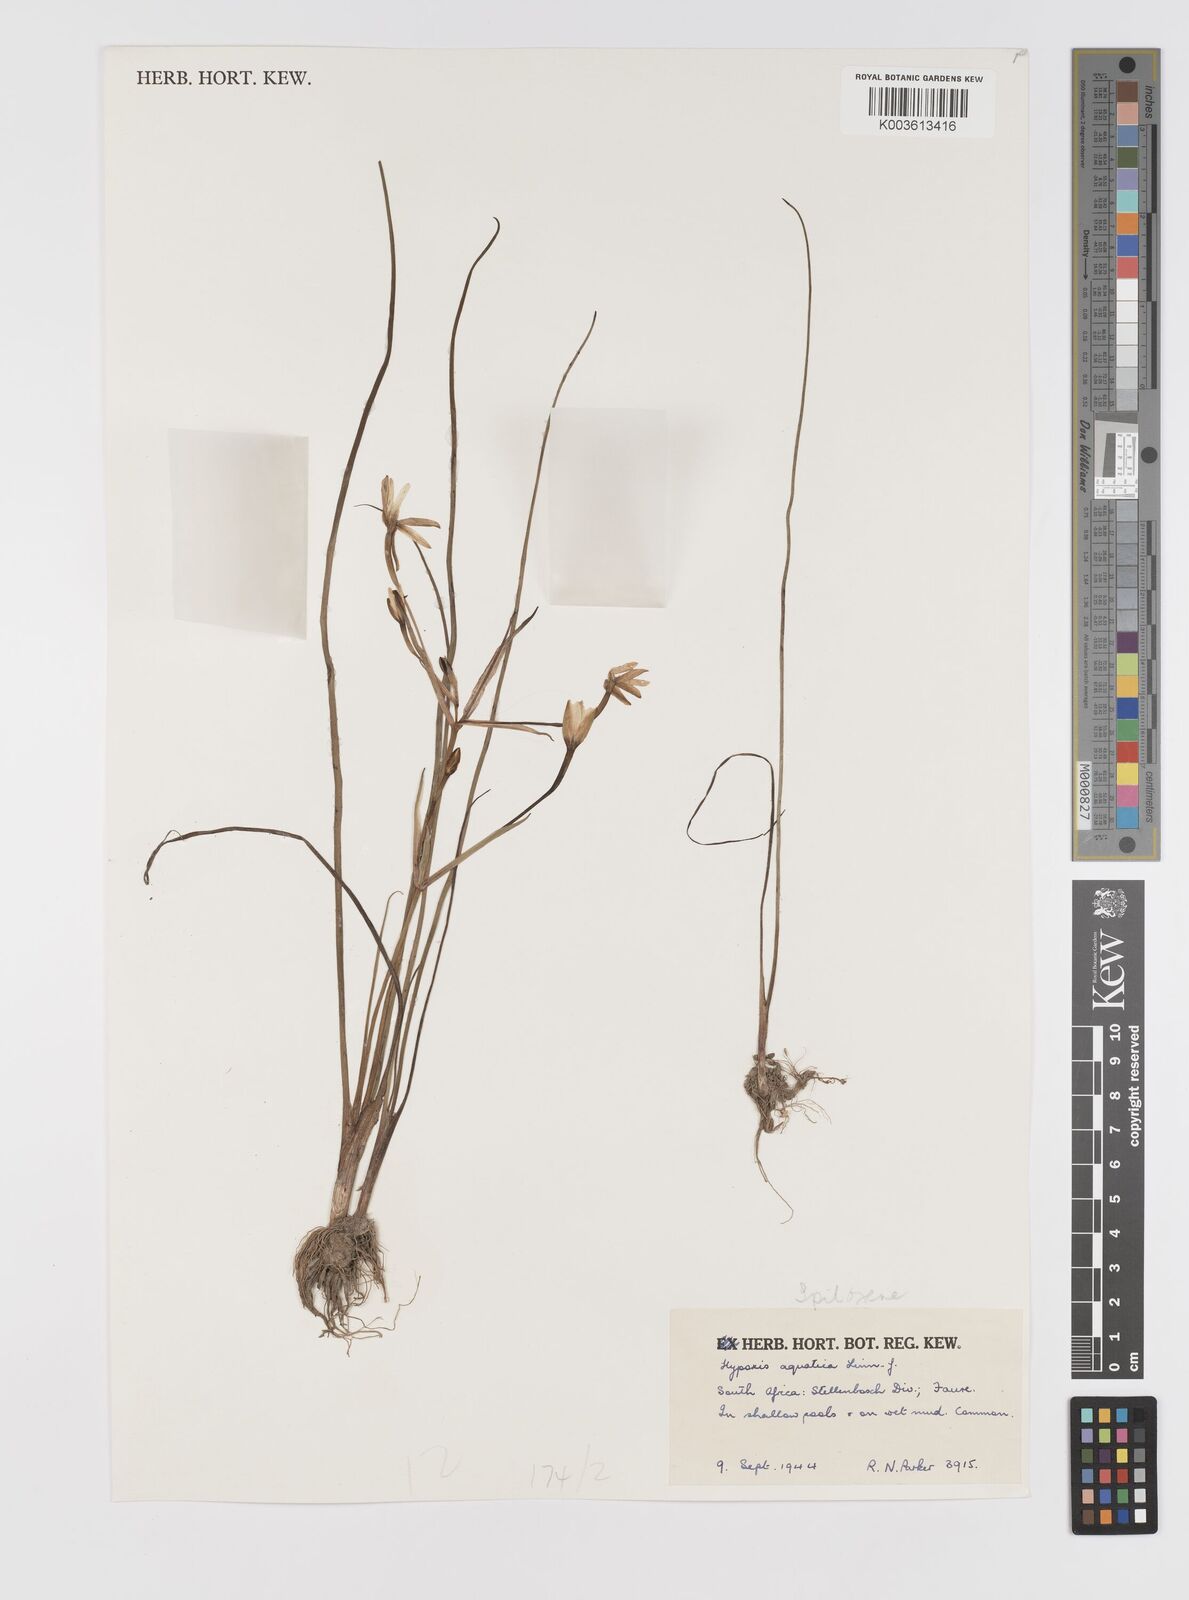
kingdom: Plantae
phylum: Tracheophyta
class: Liliopsida
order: Asparagales
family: Hypoxidaceae
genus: Pauridia
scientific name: Pauridia aquatica
